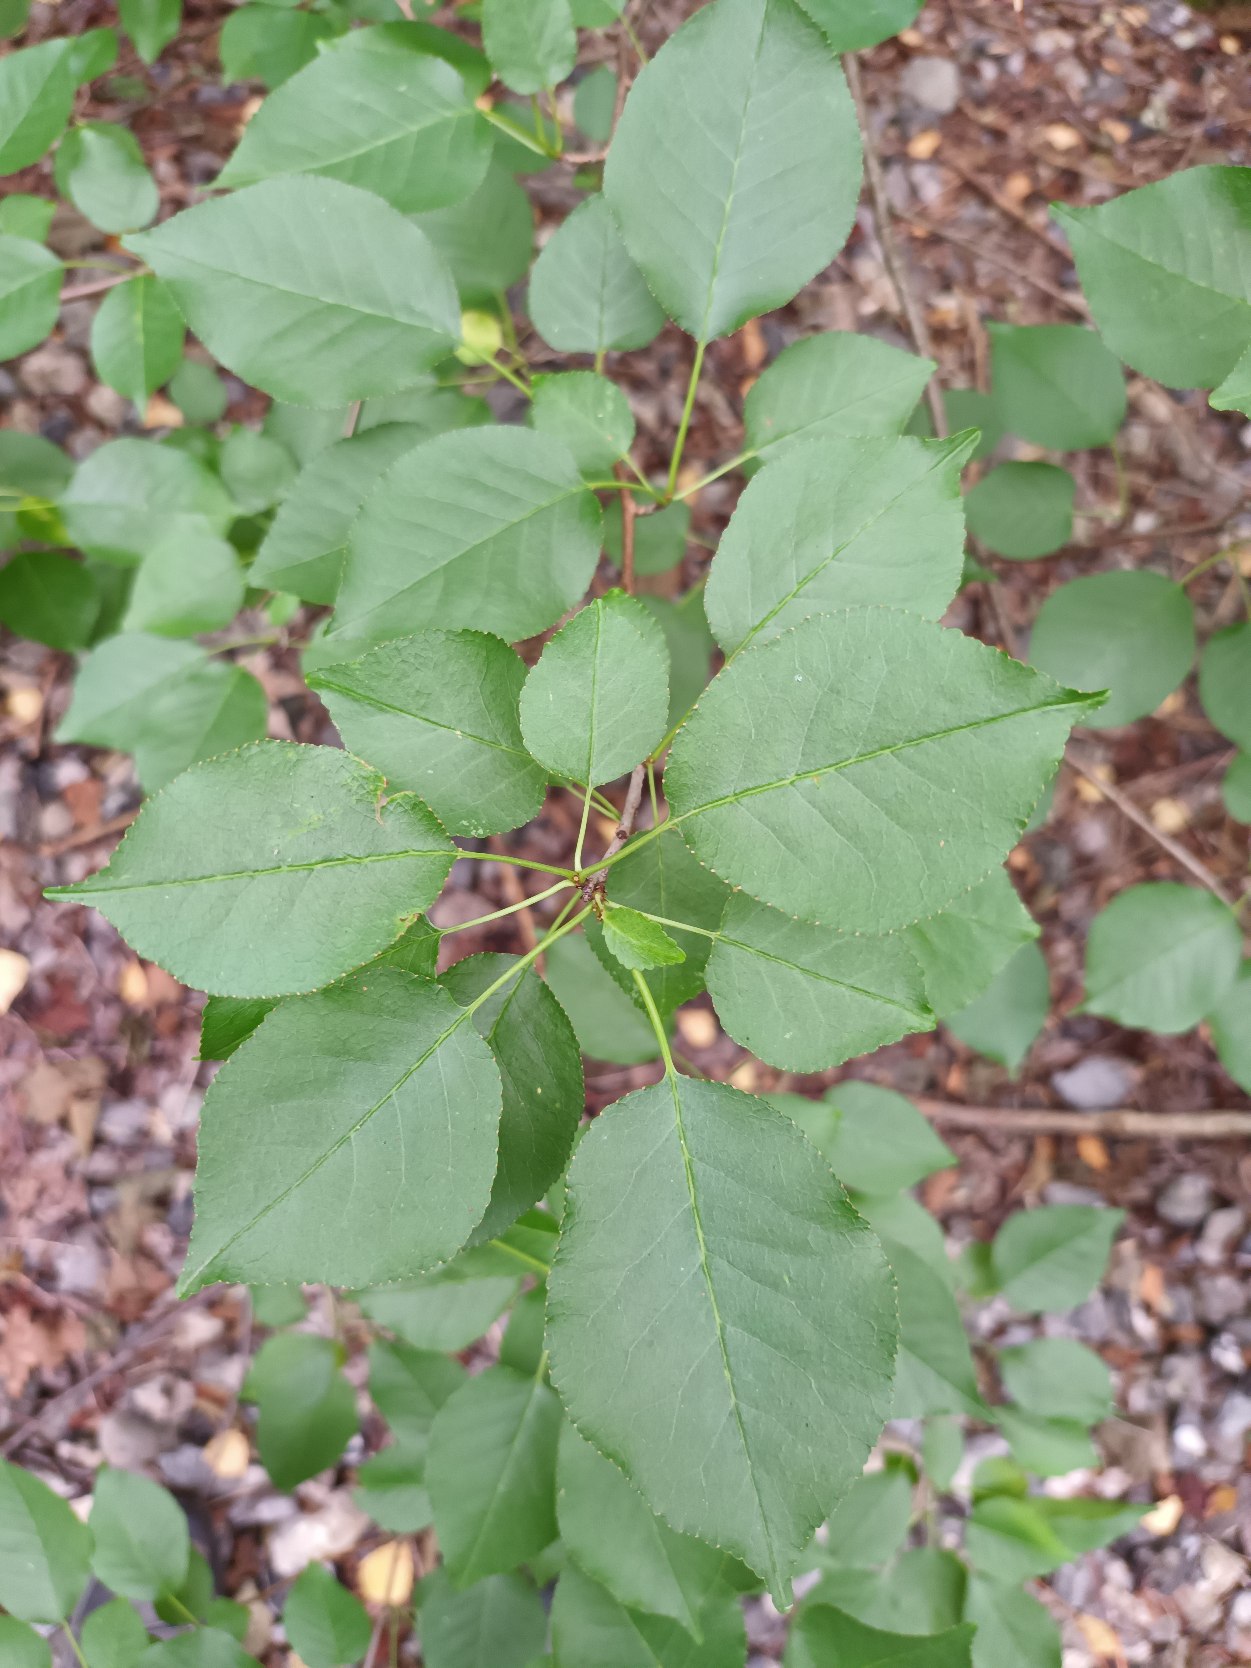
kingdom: Plantae
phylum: Tracheophyta
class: Magnoliopsida
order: Rosales
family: Rosaceae
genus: Prunus
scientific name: Prunus mahaleb
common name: Weichsel
